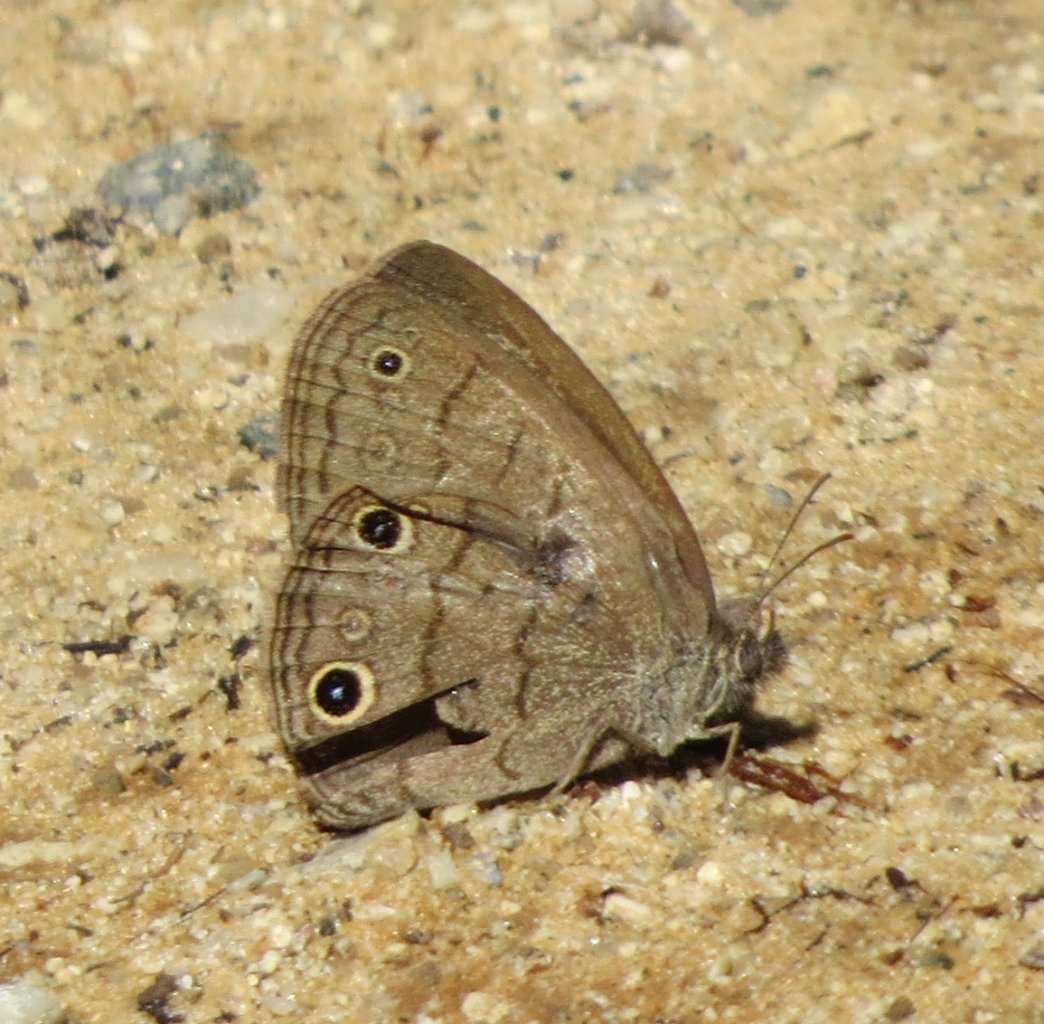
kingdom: Animalia
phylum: Arthropoda
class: Insecta
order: Lepidoptera
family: Nymphalidae
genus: Hermeuptychia
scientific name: Hermeuptychia hermes
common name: Carolina Satyr
